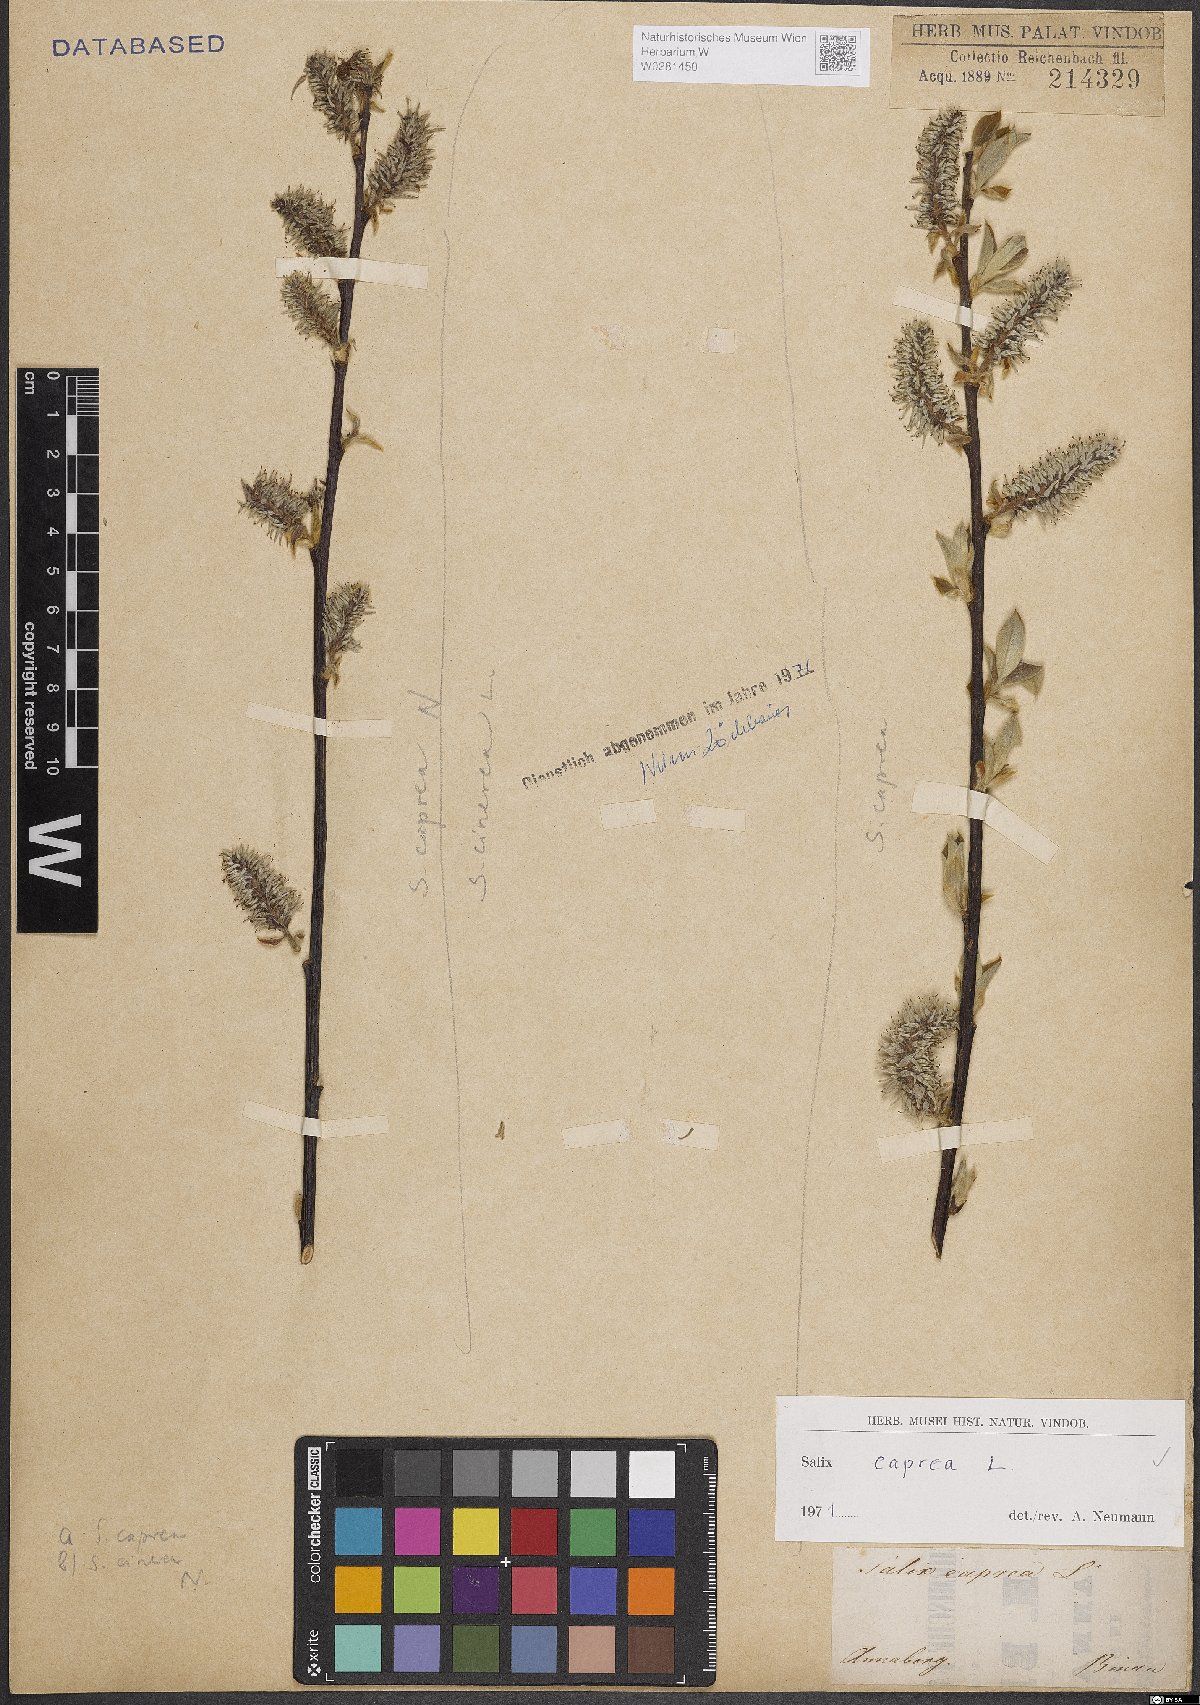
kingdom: Plantae
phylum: Tracheophyta
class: Magnoliopsida
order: Malpighiales
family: Salicaceae
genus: Salix
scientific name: Salix caprea
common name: Goat willow
